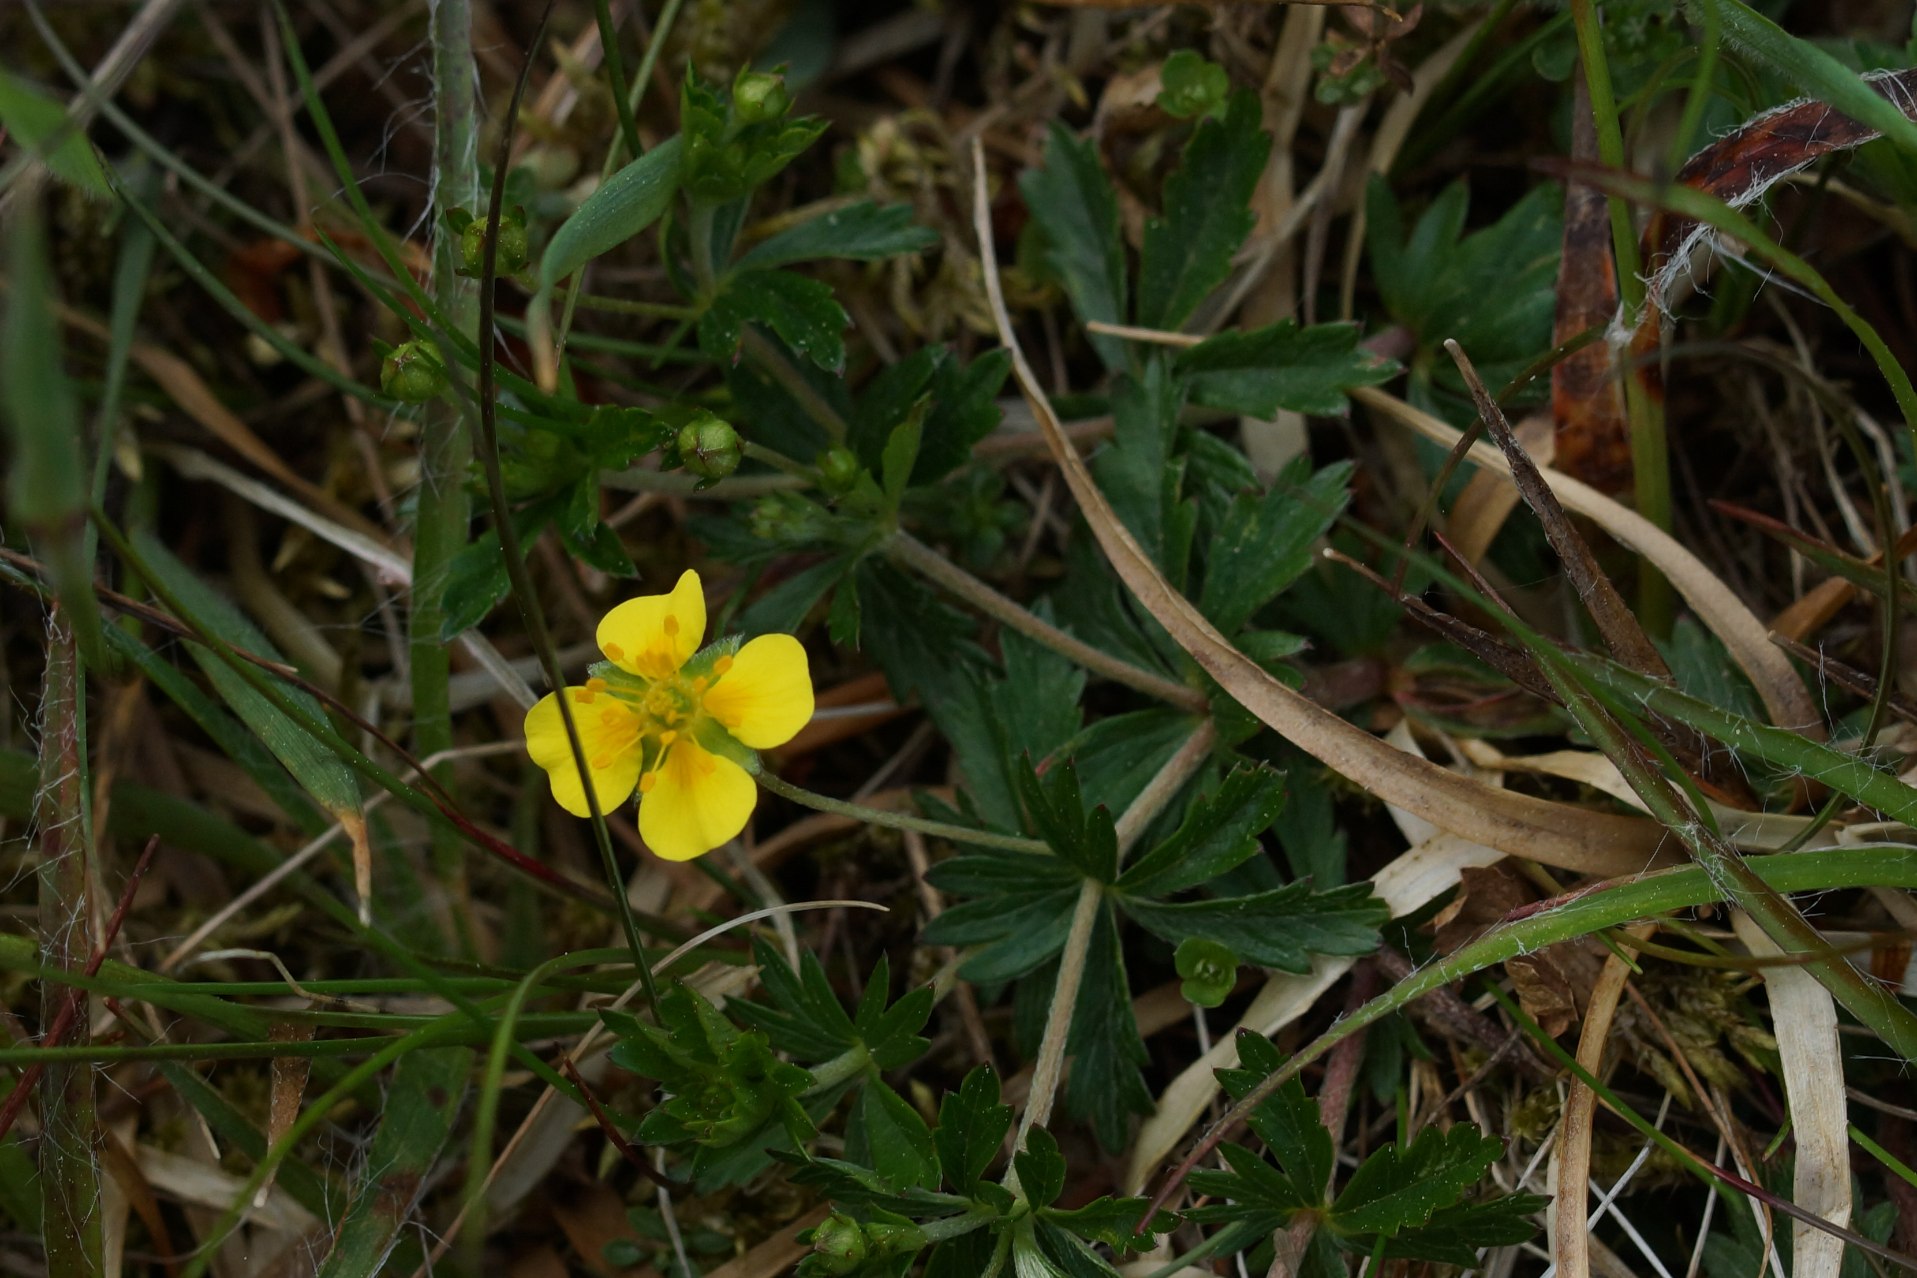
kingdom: Plantae
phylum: Tracheophyta
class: Magnoliopsida
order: Rosales
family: Rosaceae
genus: Potentilla
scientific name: Potentilla erecta
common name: Tormentil
